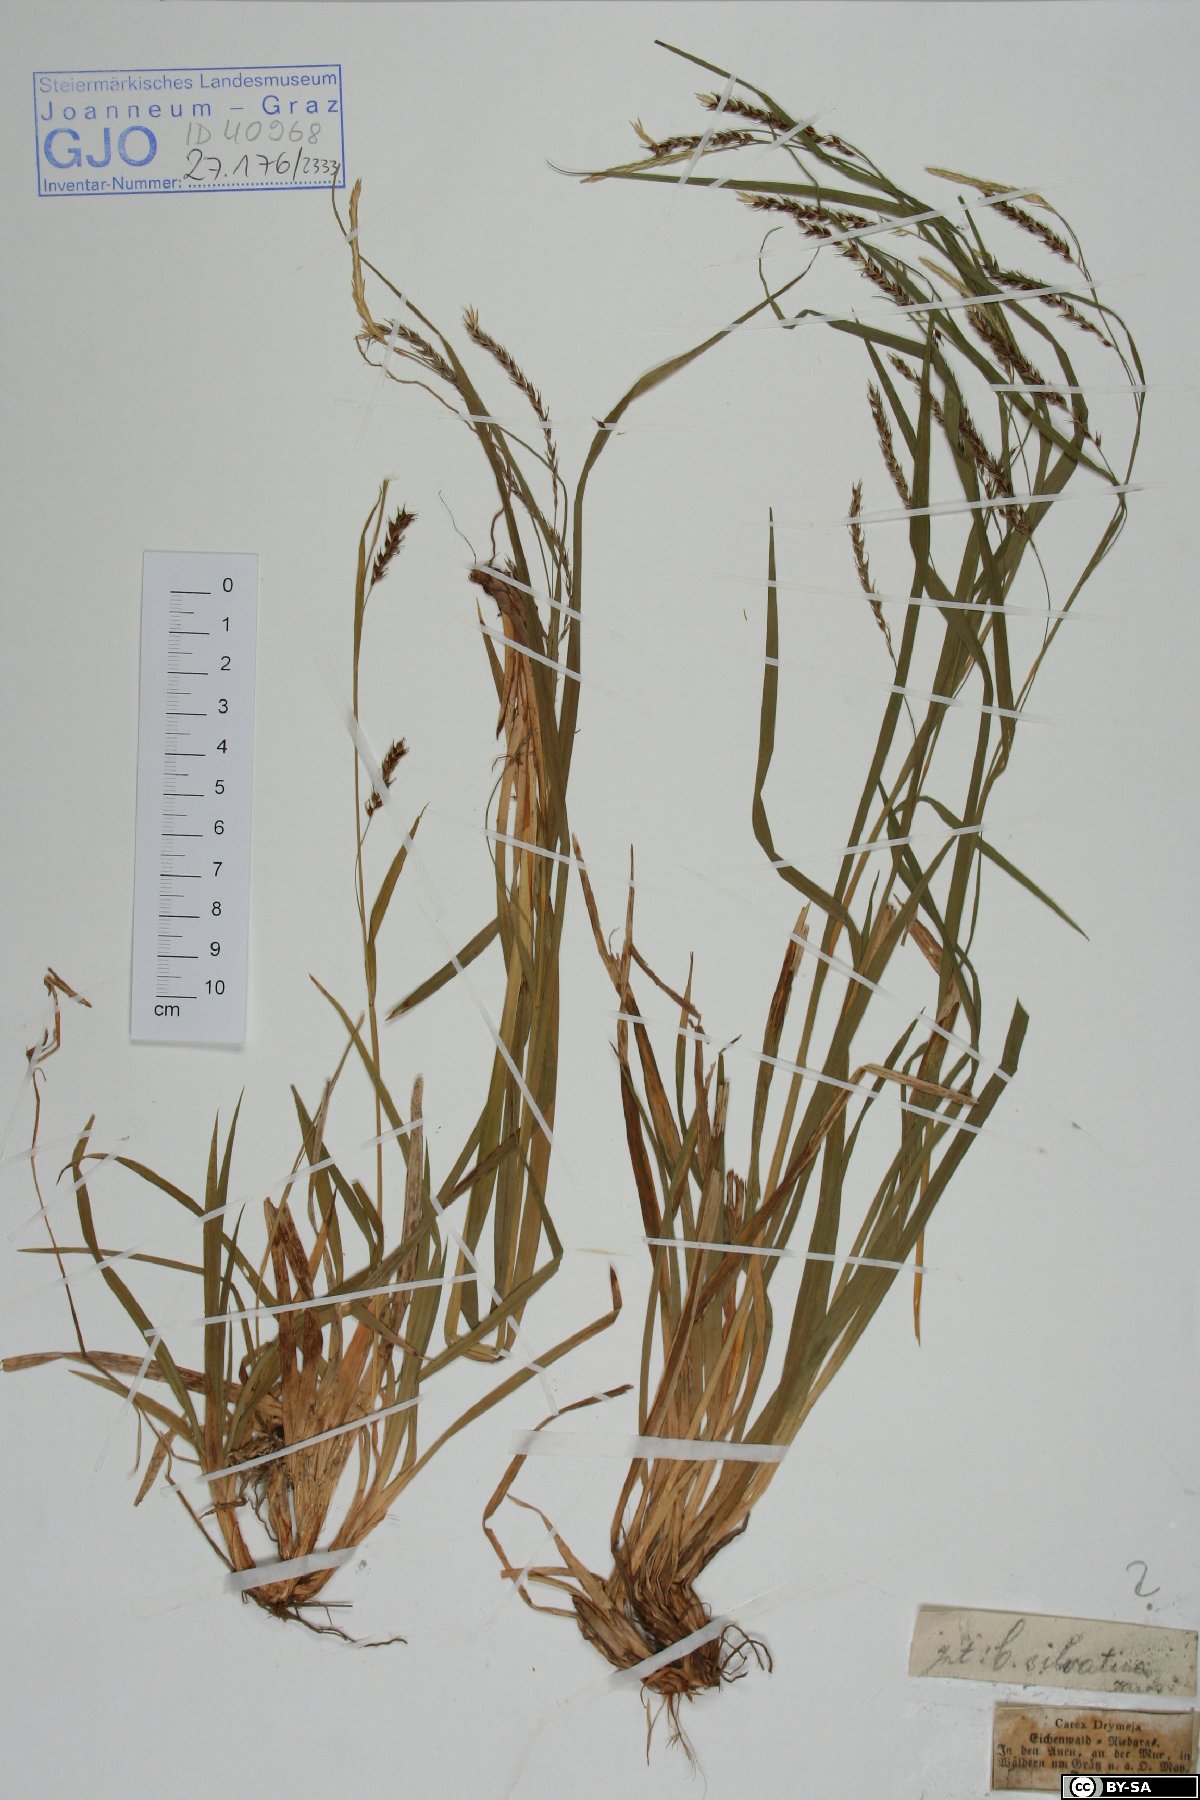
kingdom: Plantae
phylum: Tracheophyta
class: Liliopsida
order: Poales
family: Cyperaceae
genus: Carex
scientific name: Carex sylvatica
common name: Wood-sedge
